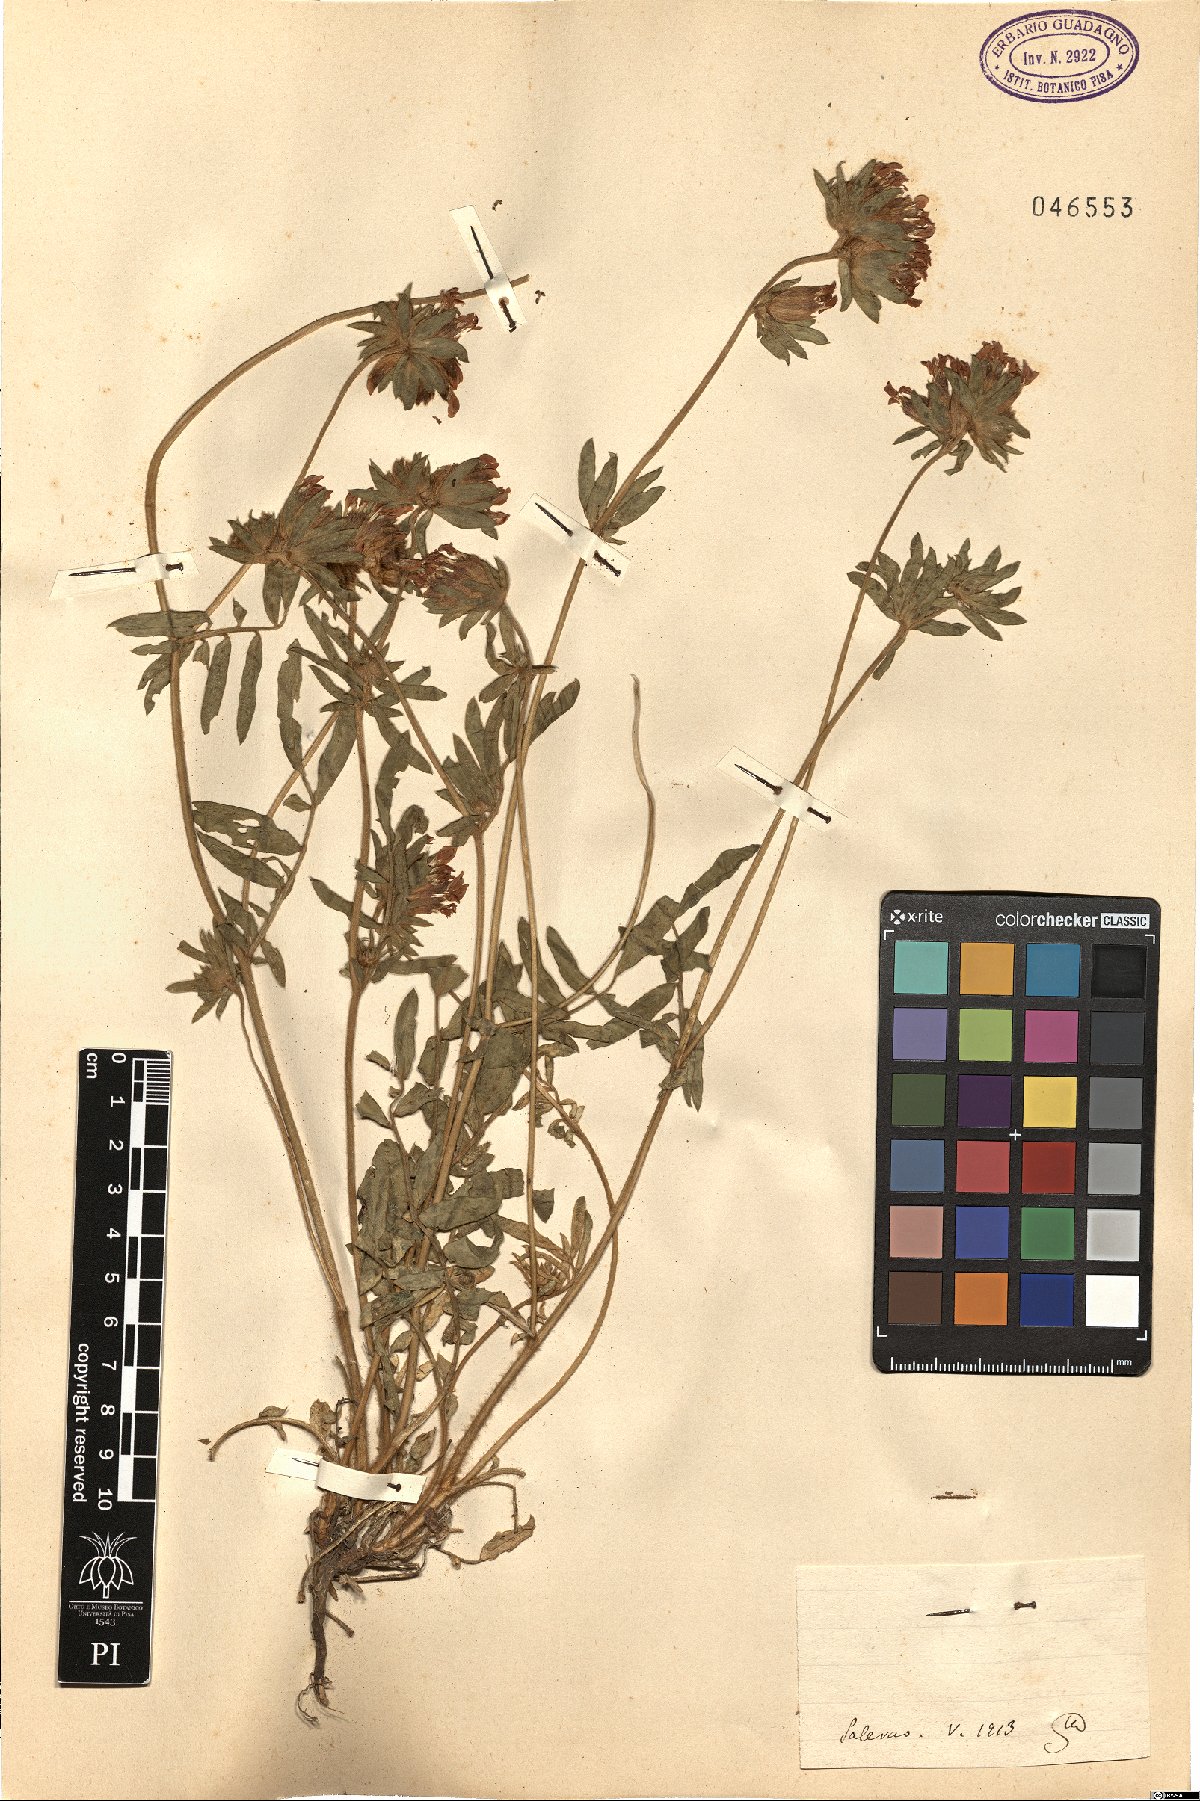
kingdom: Plantae
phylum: Tracheophyta
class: Magnoliopsida
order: Fabales
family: Fabaceae
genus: Anthyllis
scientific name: Anthyllis
